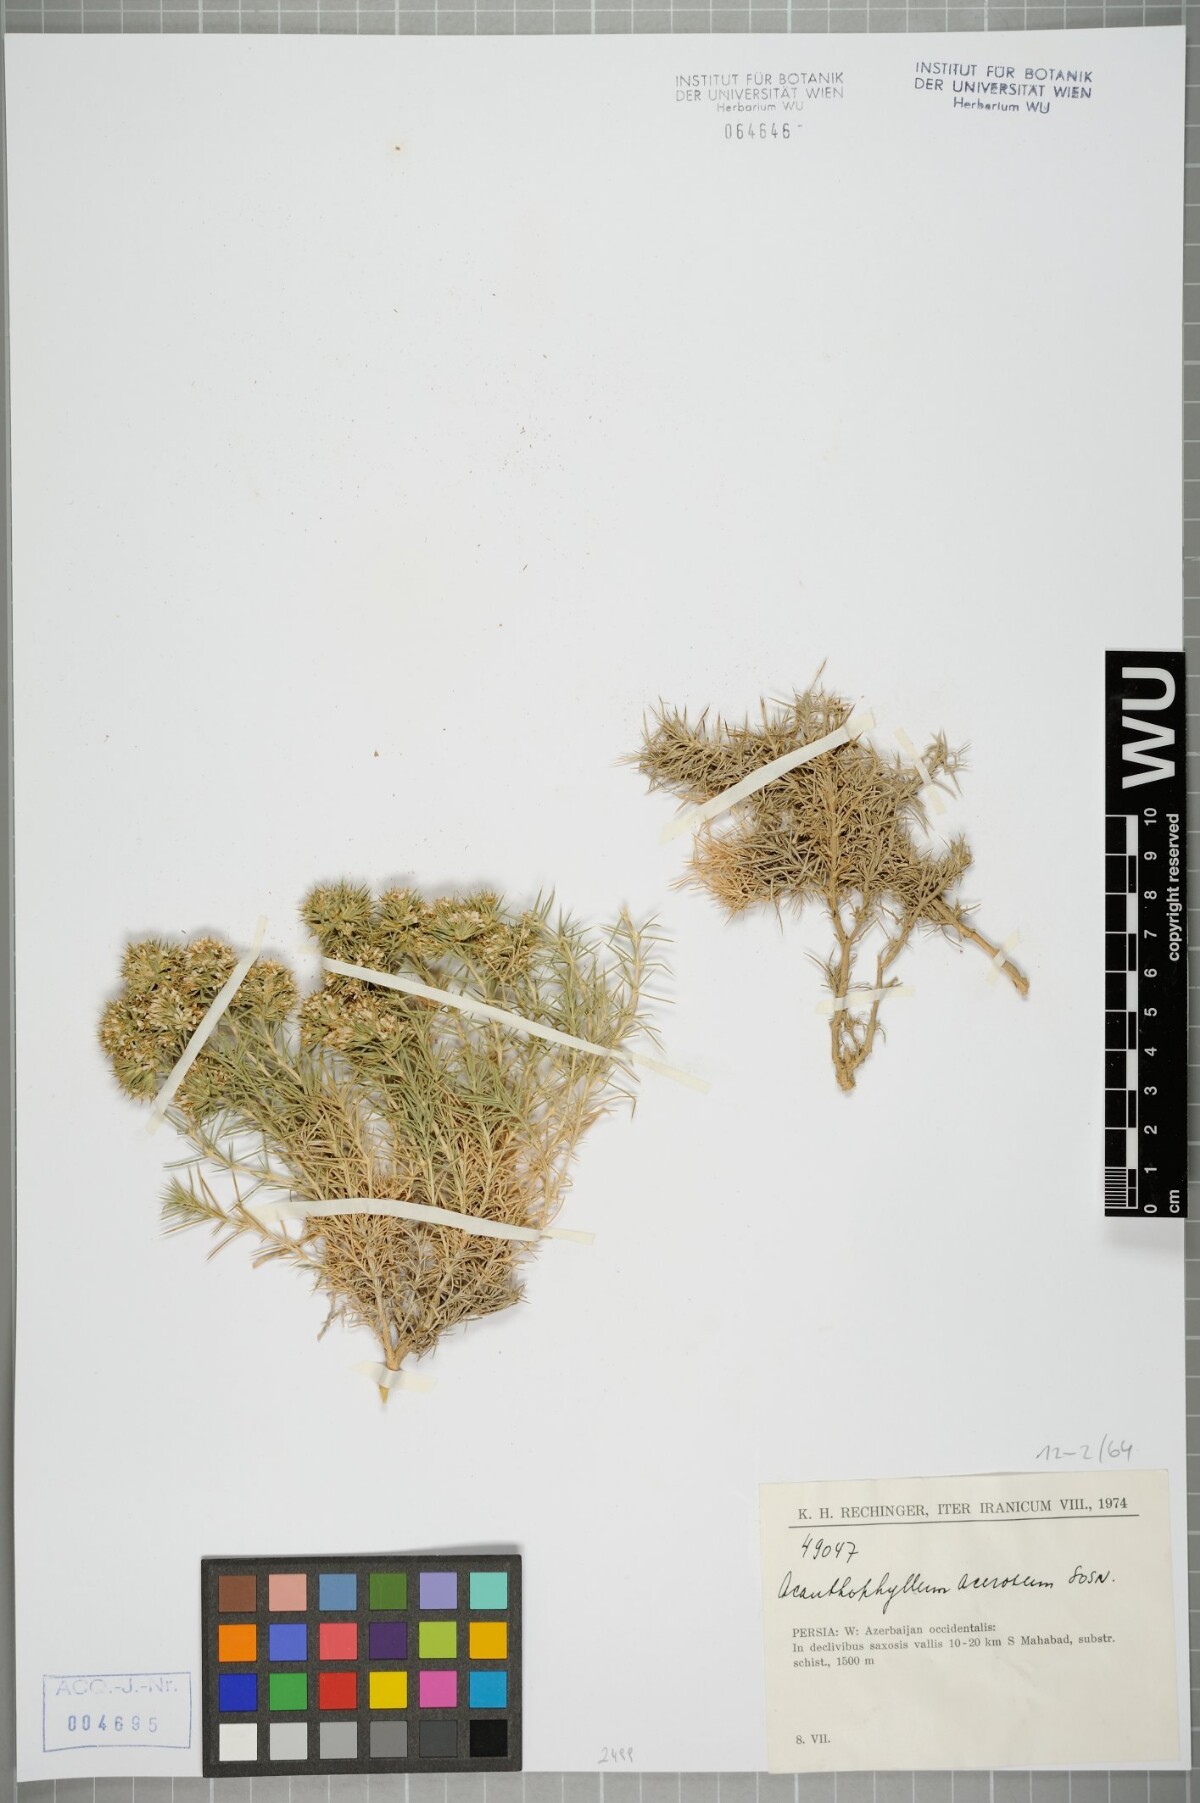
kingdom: Plantae
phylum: Tracheophyta
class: Magnoliopsida
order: Caryophyllales
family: Caryophyllaceae
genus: Acanthophyllum
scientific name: Acanthophyllum acerosum
